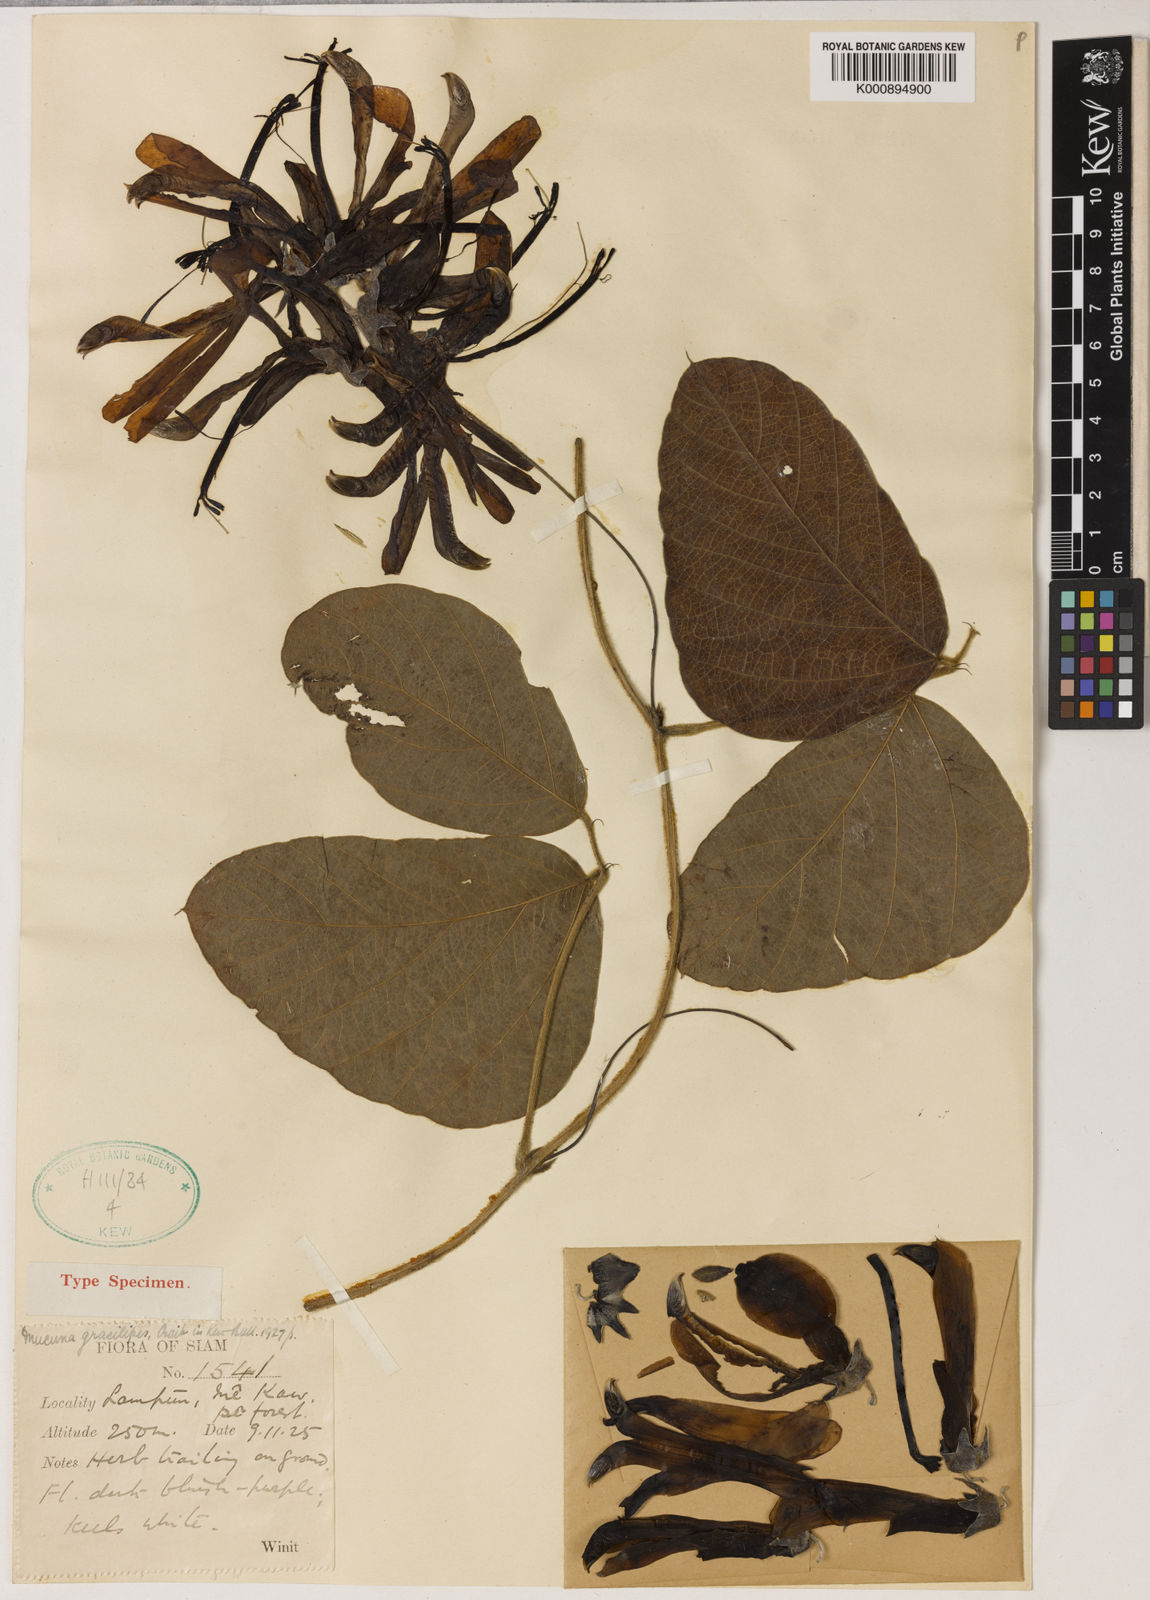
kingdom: Plantae
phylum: Tracheophyta
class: Magnoliopsida
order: Fabales
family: Fabaceae
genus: Mucuna
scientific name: Mucuna gracilipes
